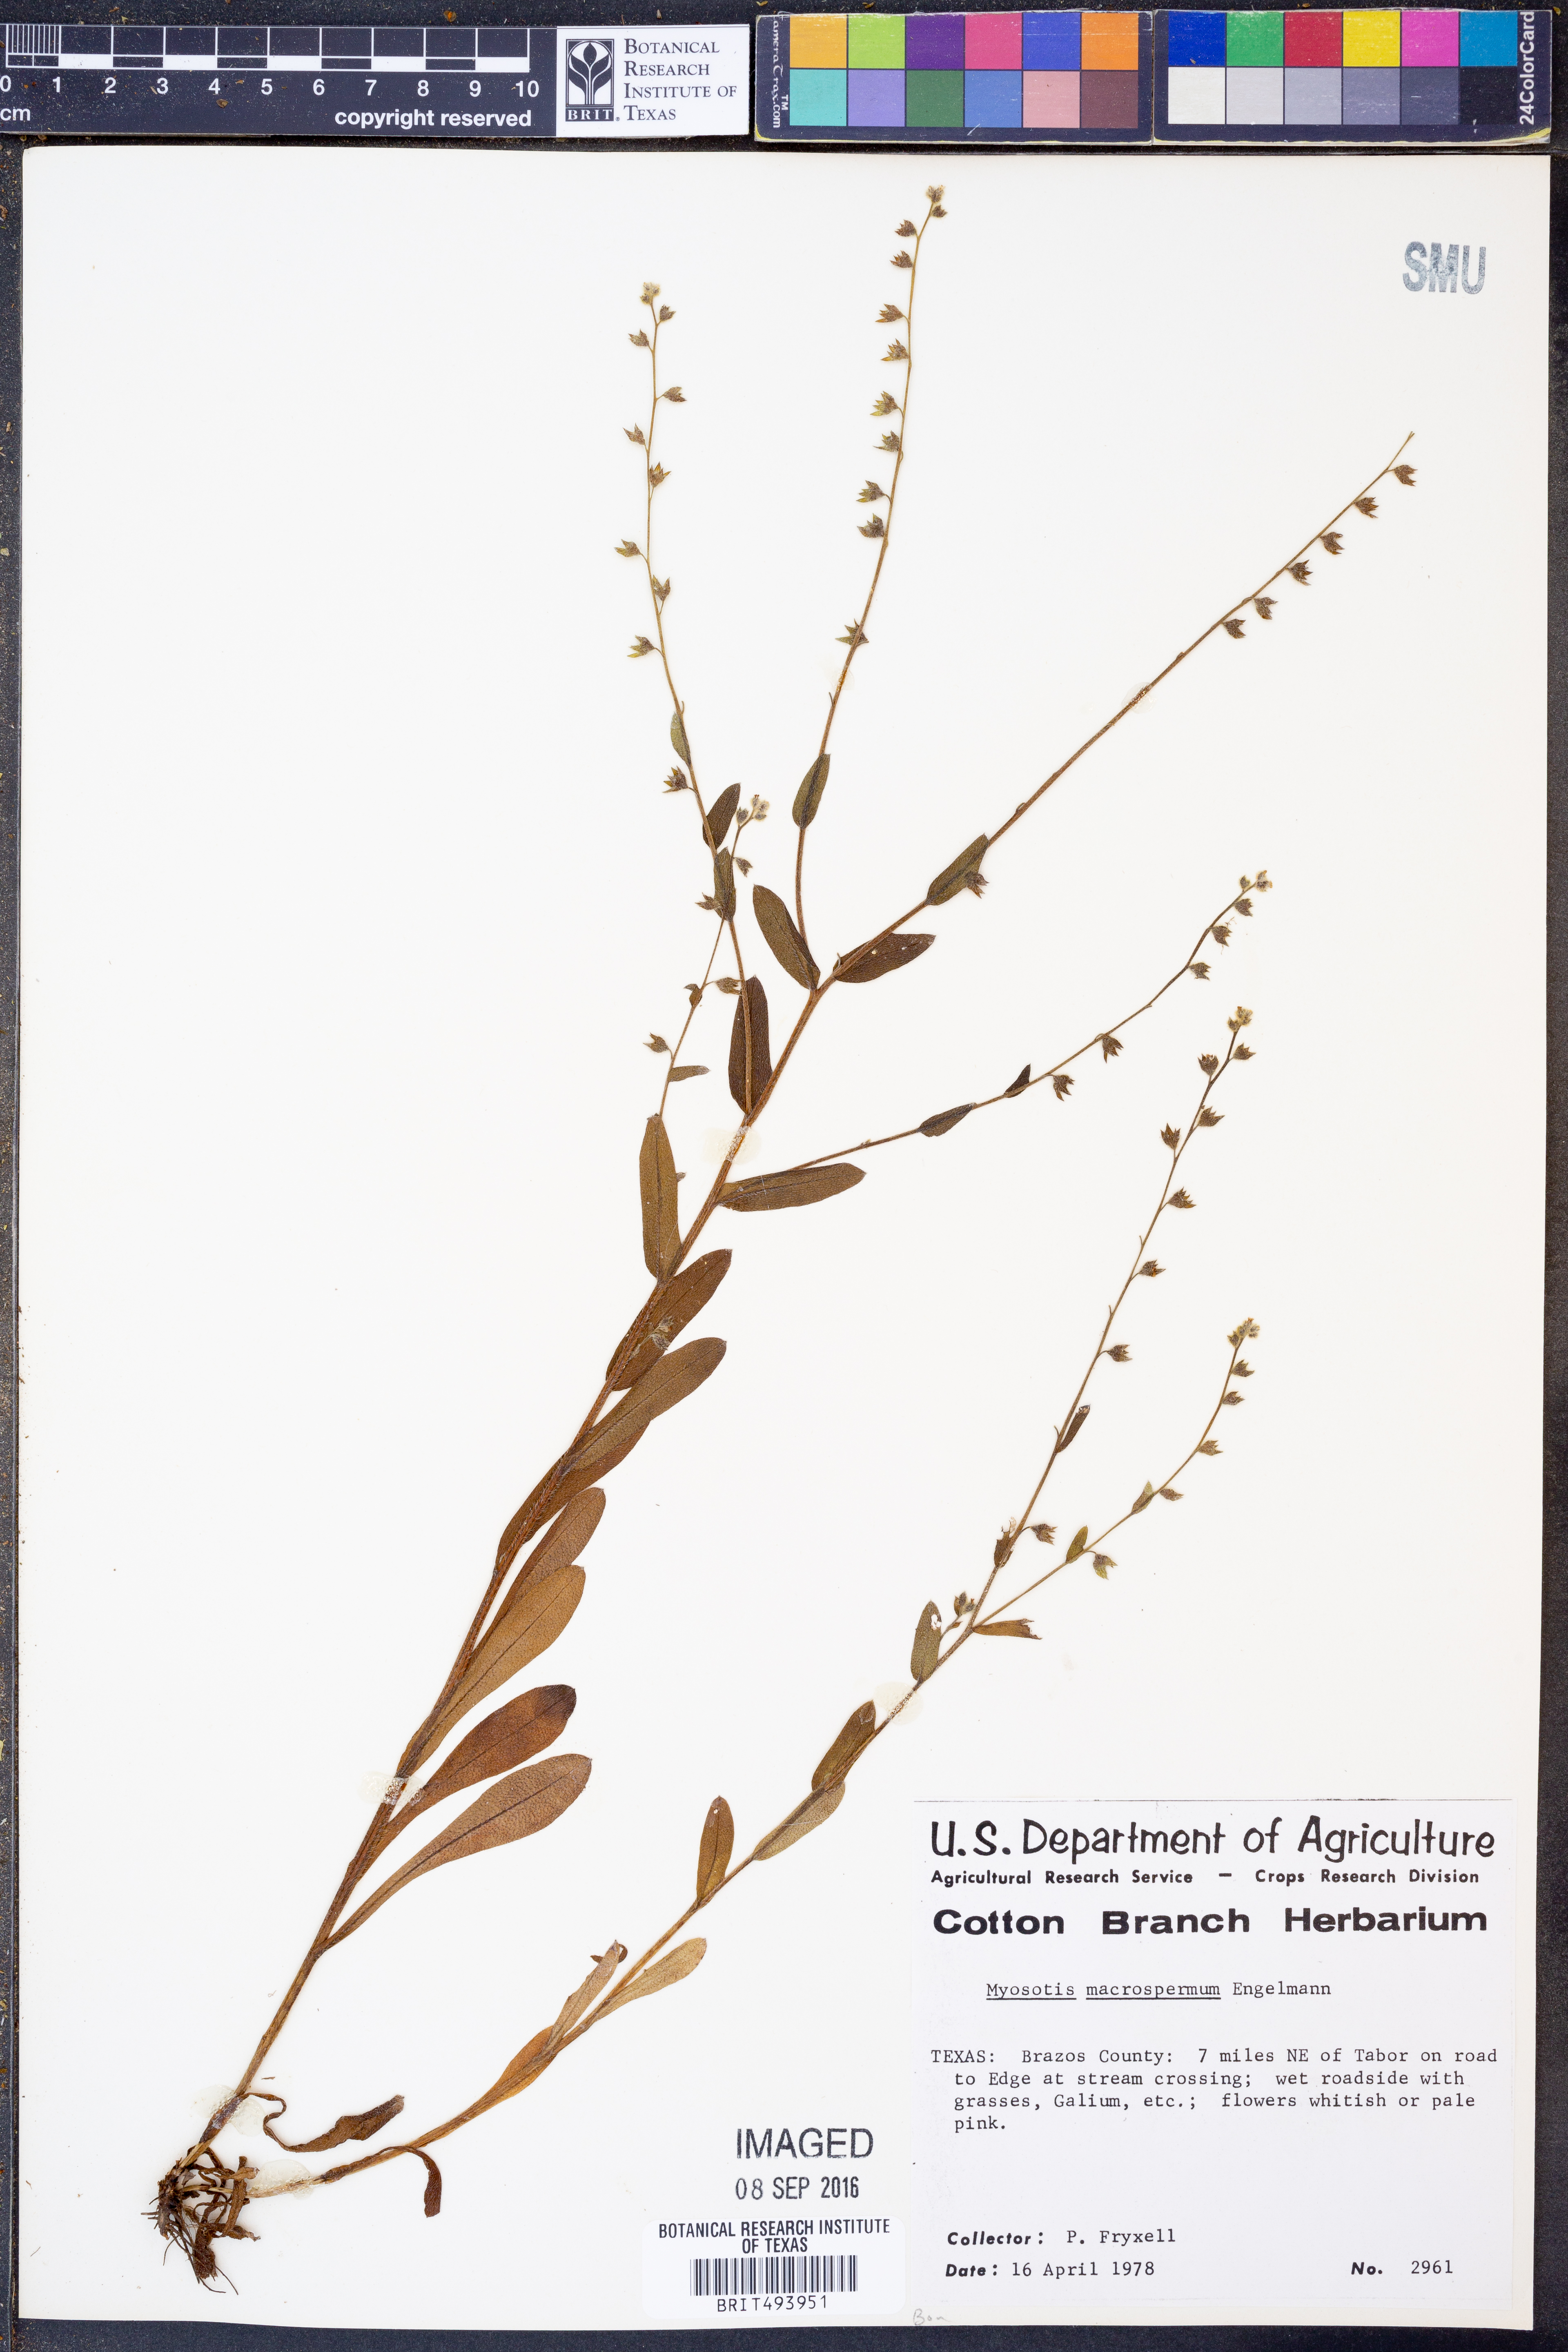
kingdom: Plantae
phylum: Tracheophyta
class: Magnoliopsida
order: Boraginales
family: Boraginaceae
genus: Myosotis
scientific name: Myosotis macrosperma
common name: Large-seed forget-me-not
